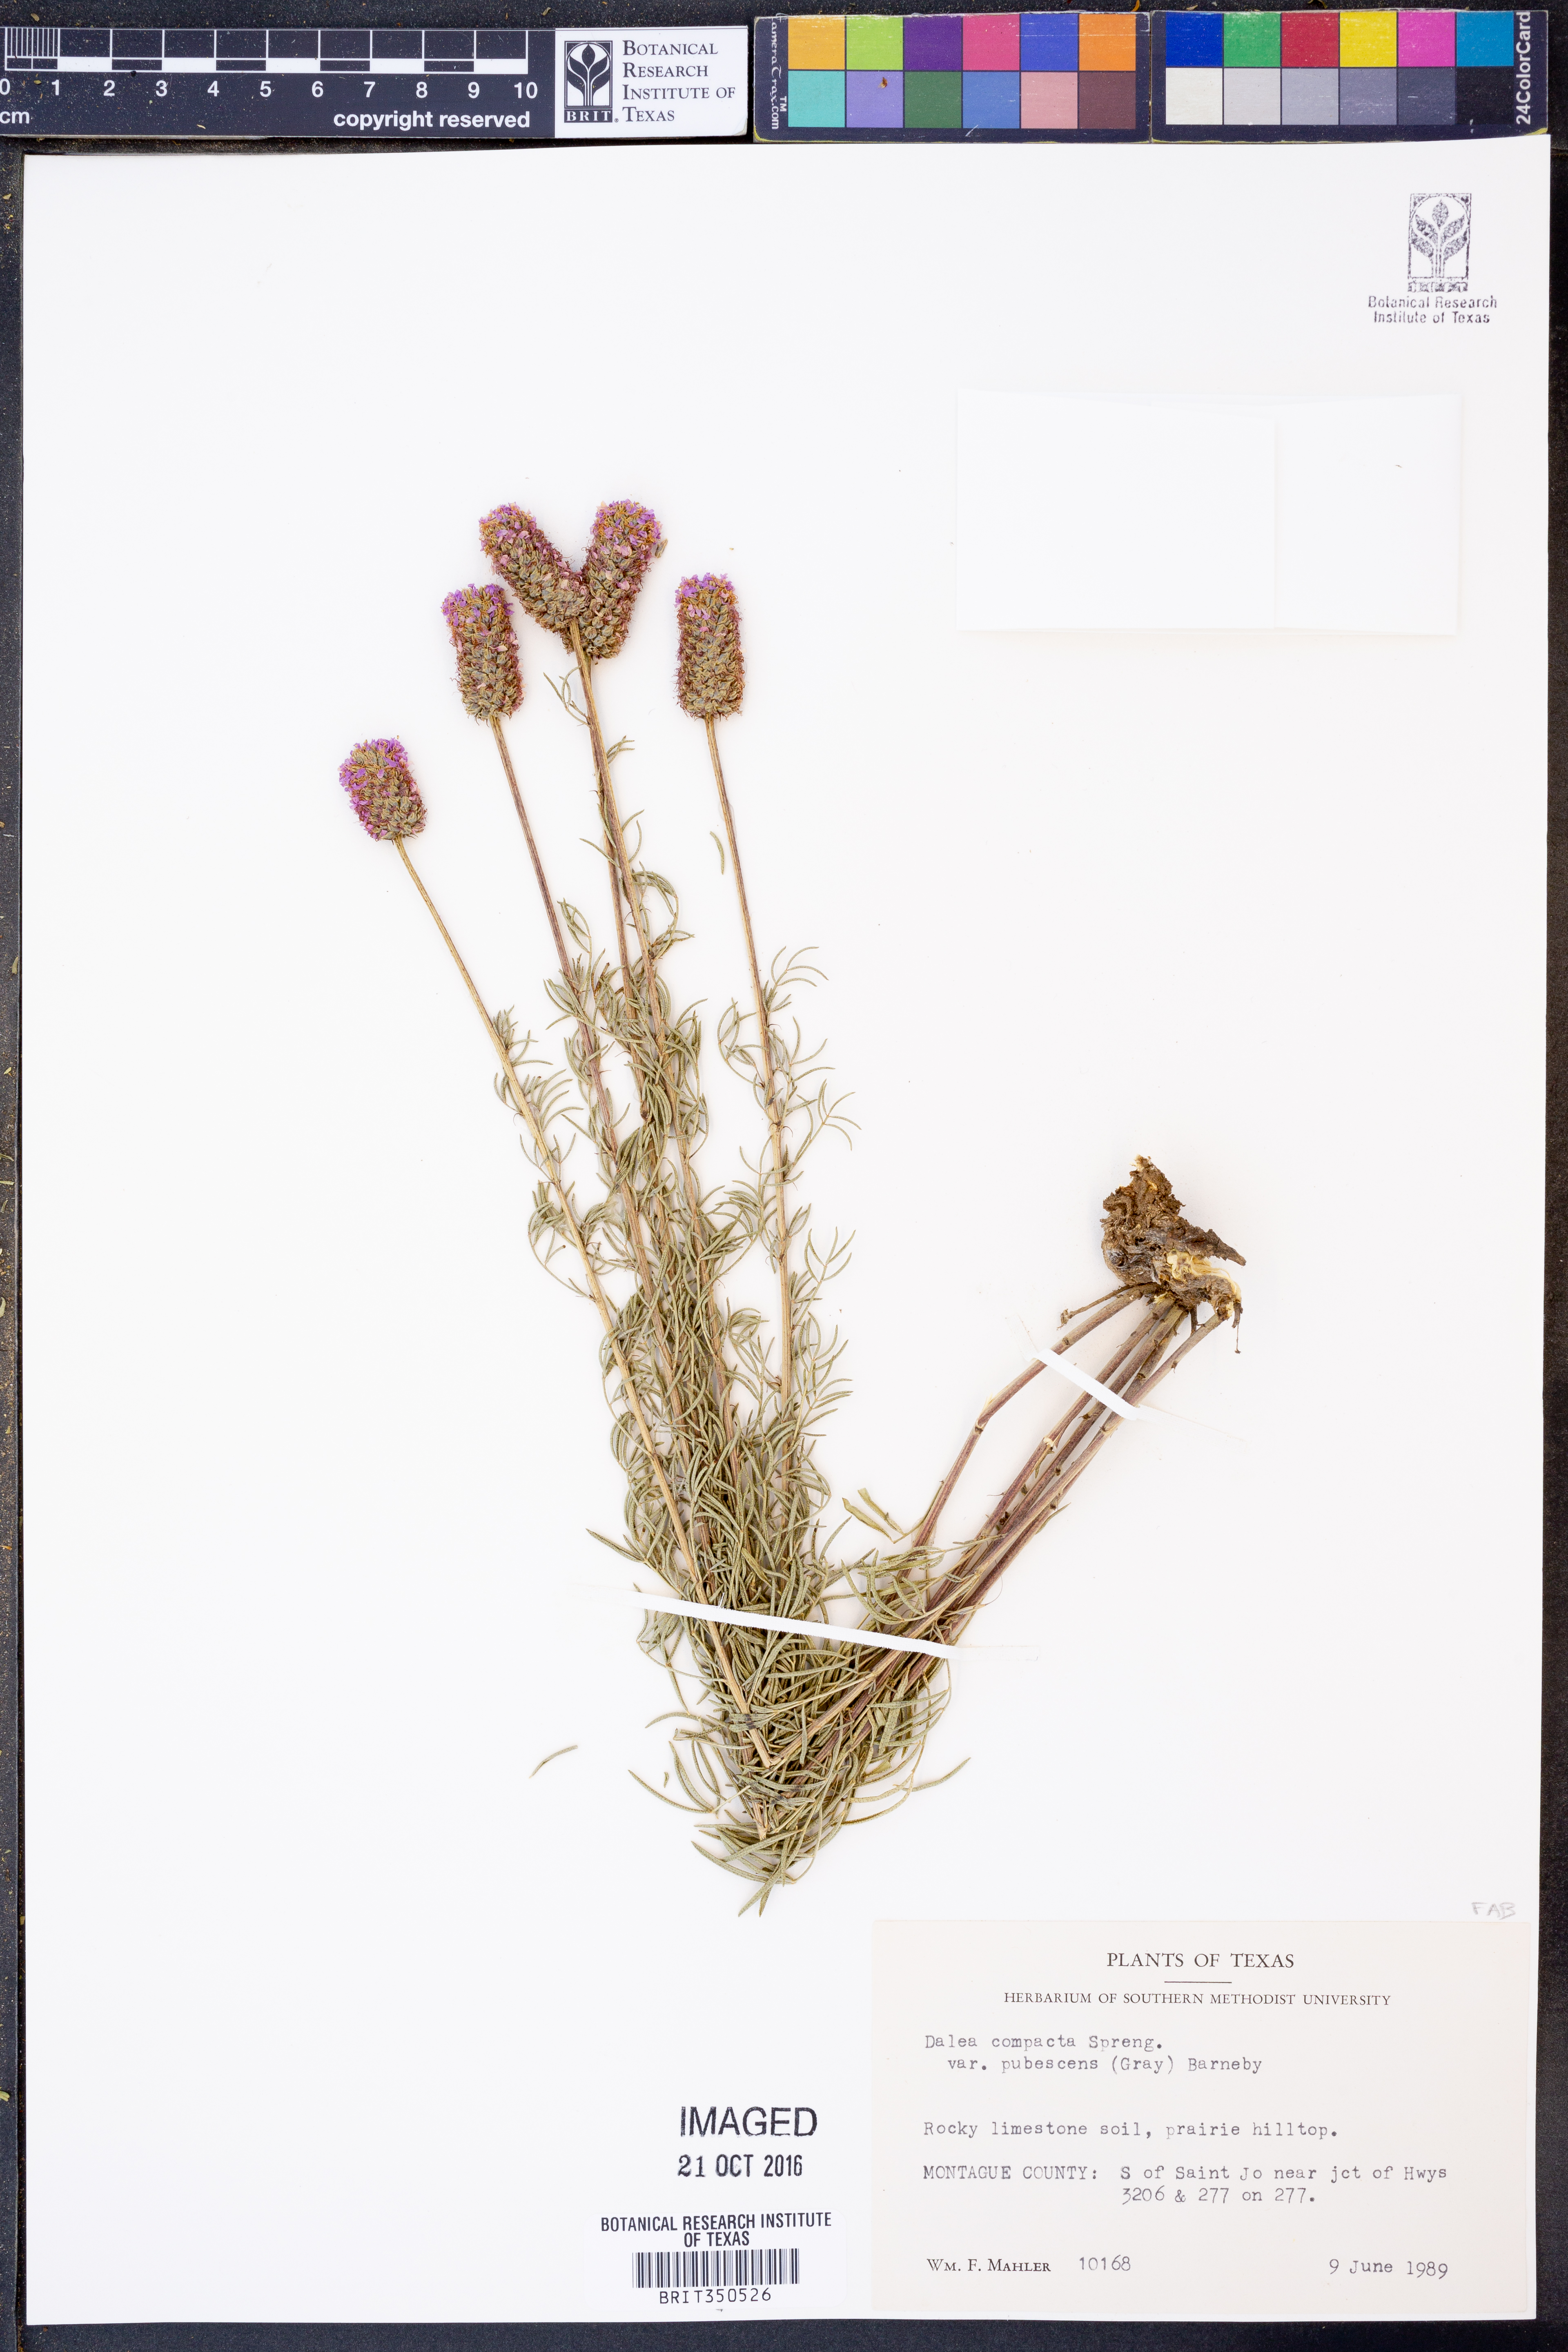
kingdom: Plantae
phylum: Tracheophyta
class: Magnoliopsida
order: Fabales
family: Fabaceae
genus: Dalea
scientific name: Dalea compacta
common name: Compact prairie-clover
